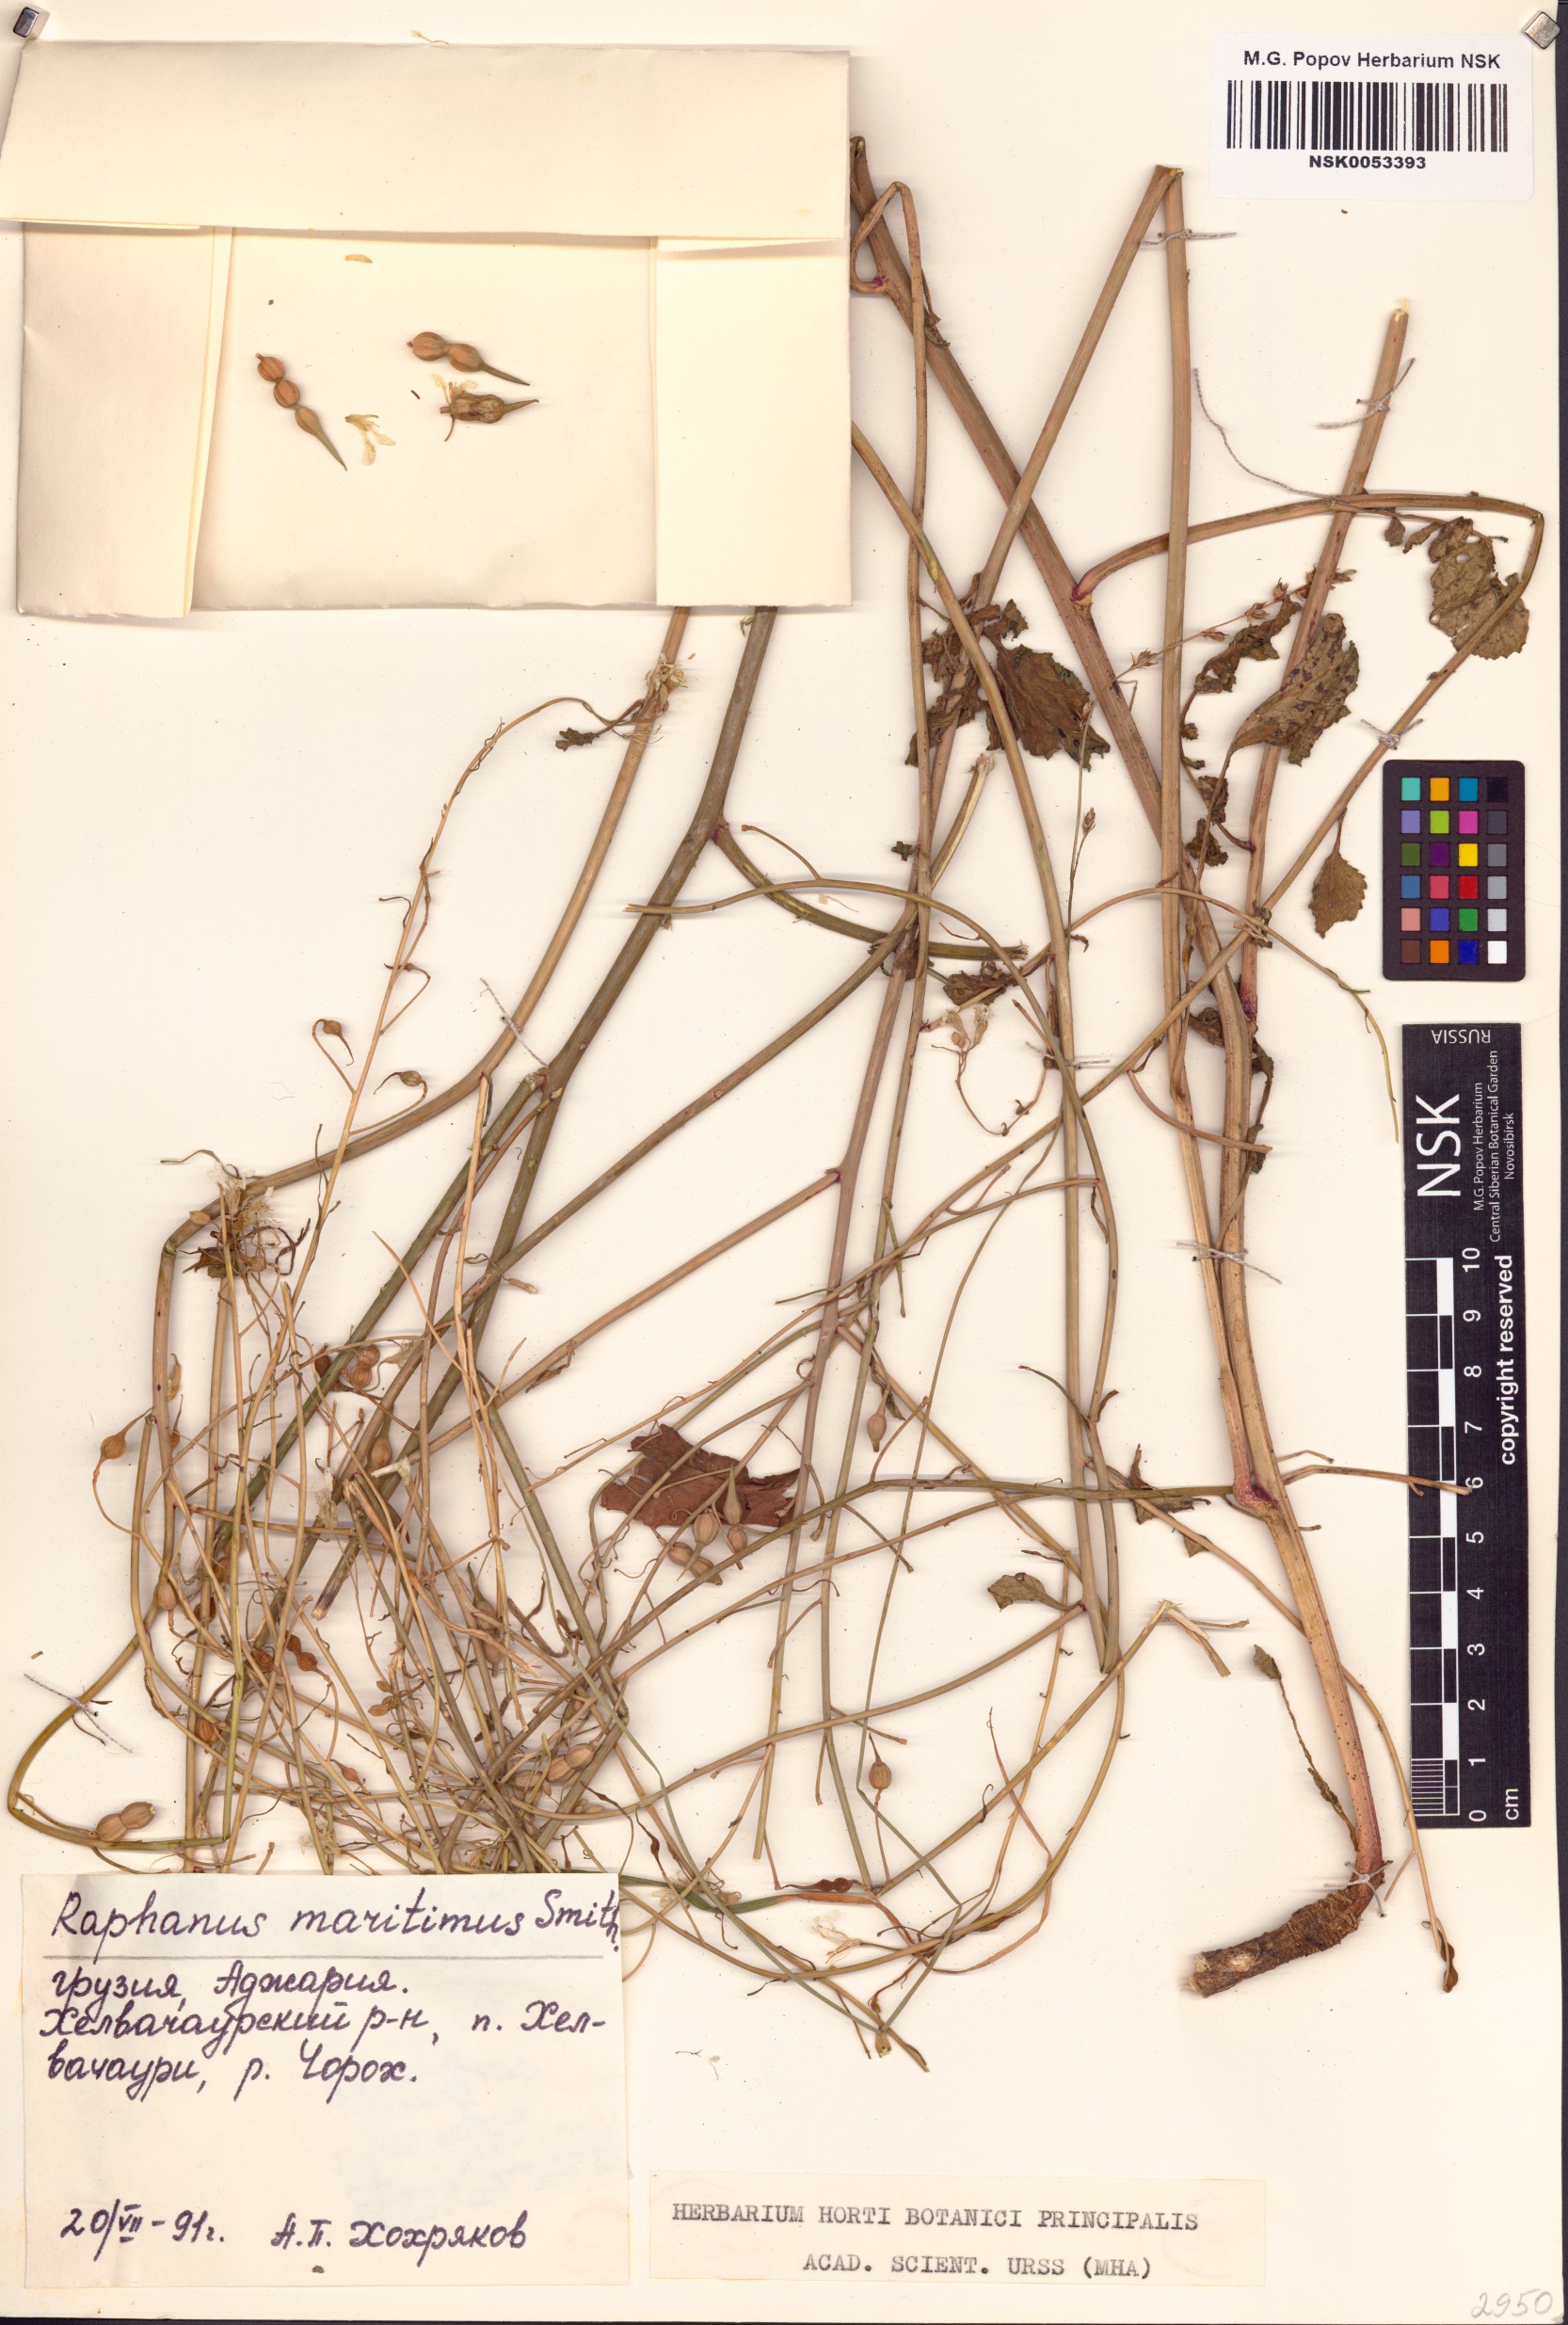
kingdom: Plantae
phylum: Tracheophyta
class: Magnoliopsida
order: Brassicales
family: Brassicaceae
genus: Raphanus
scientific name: Raphanus raphanistrum
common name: Wild radish
